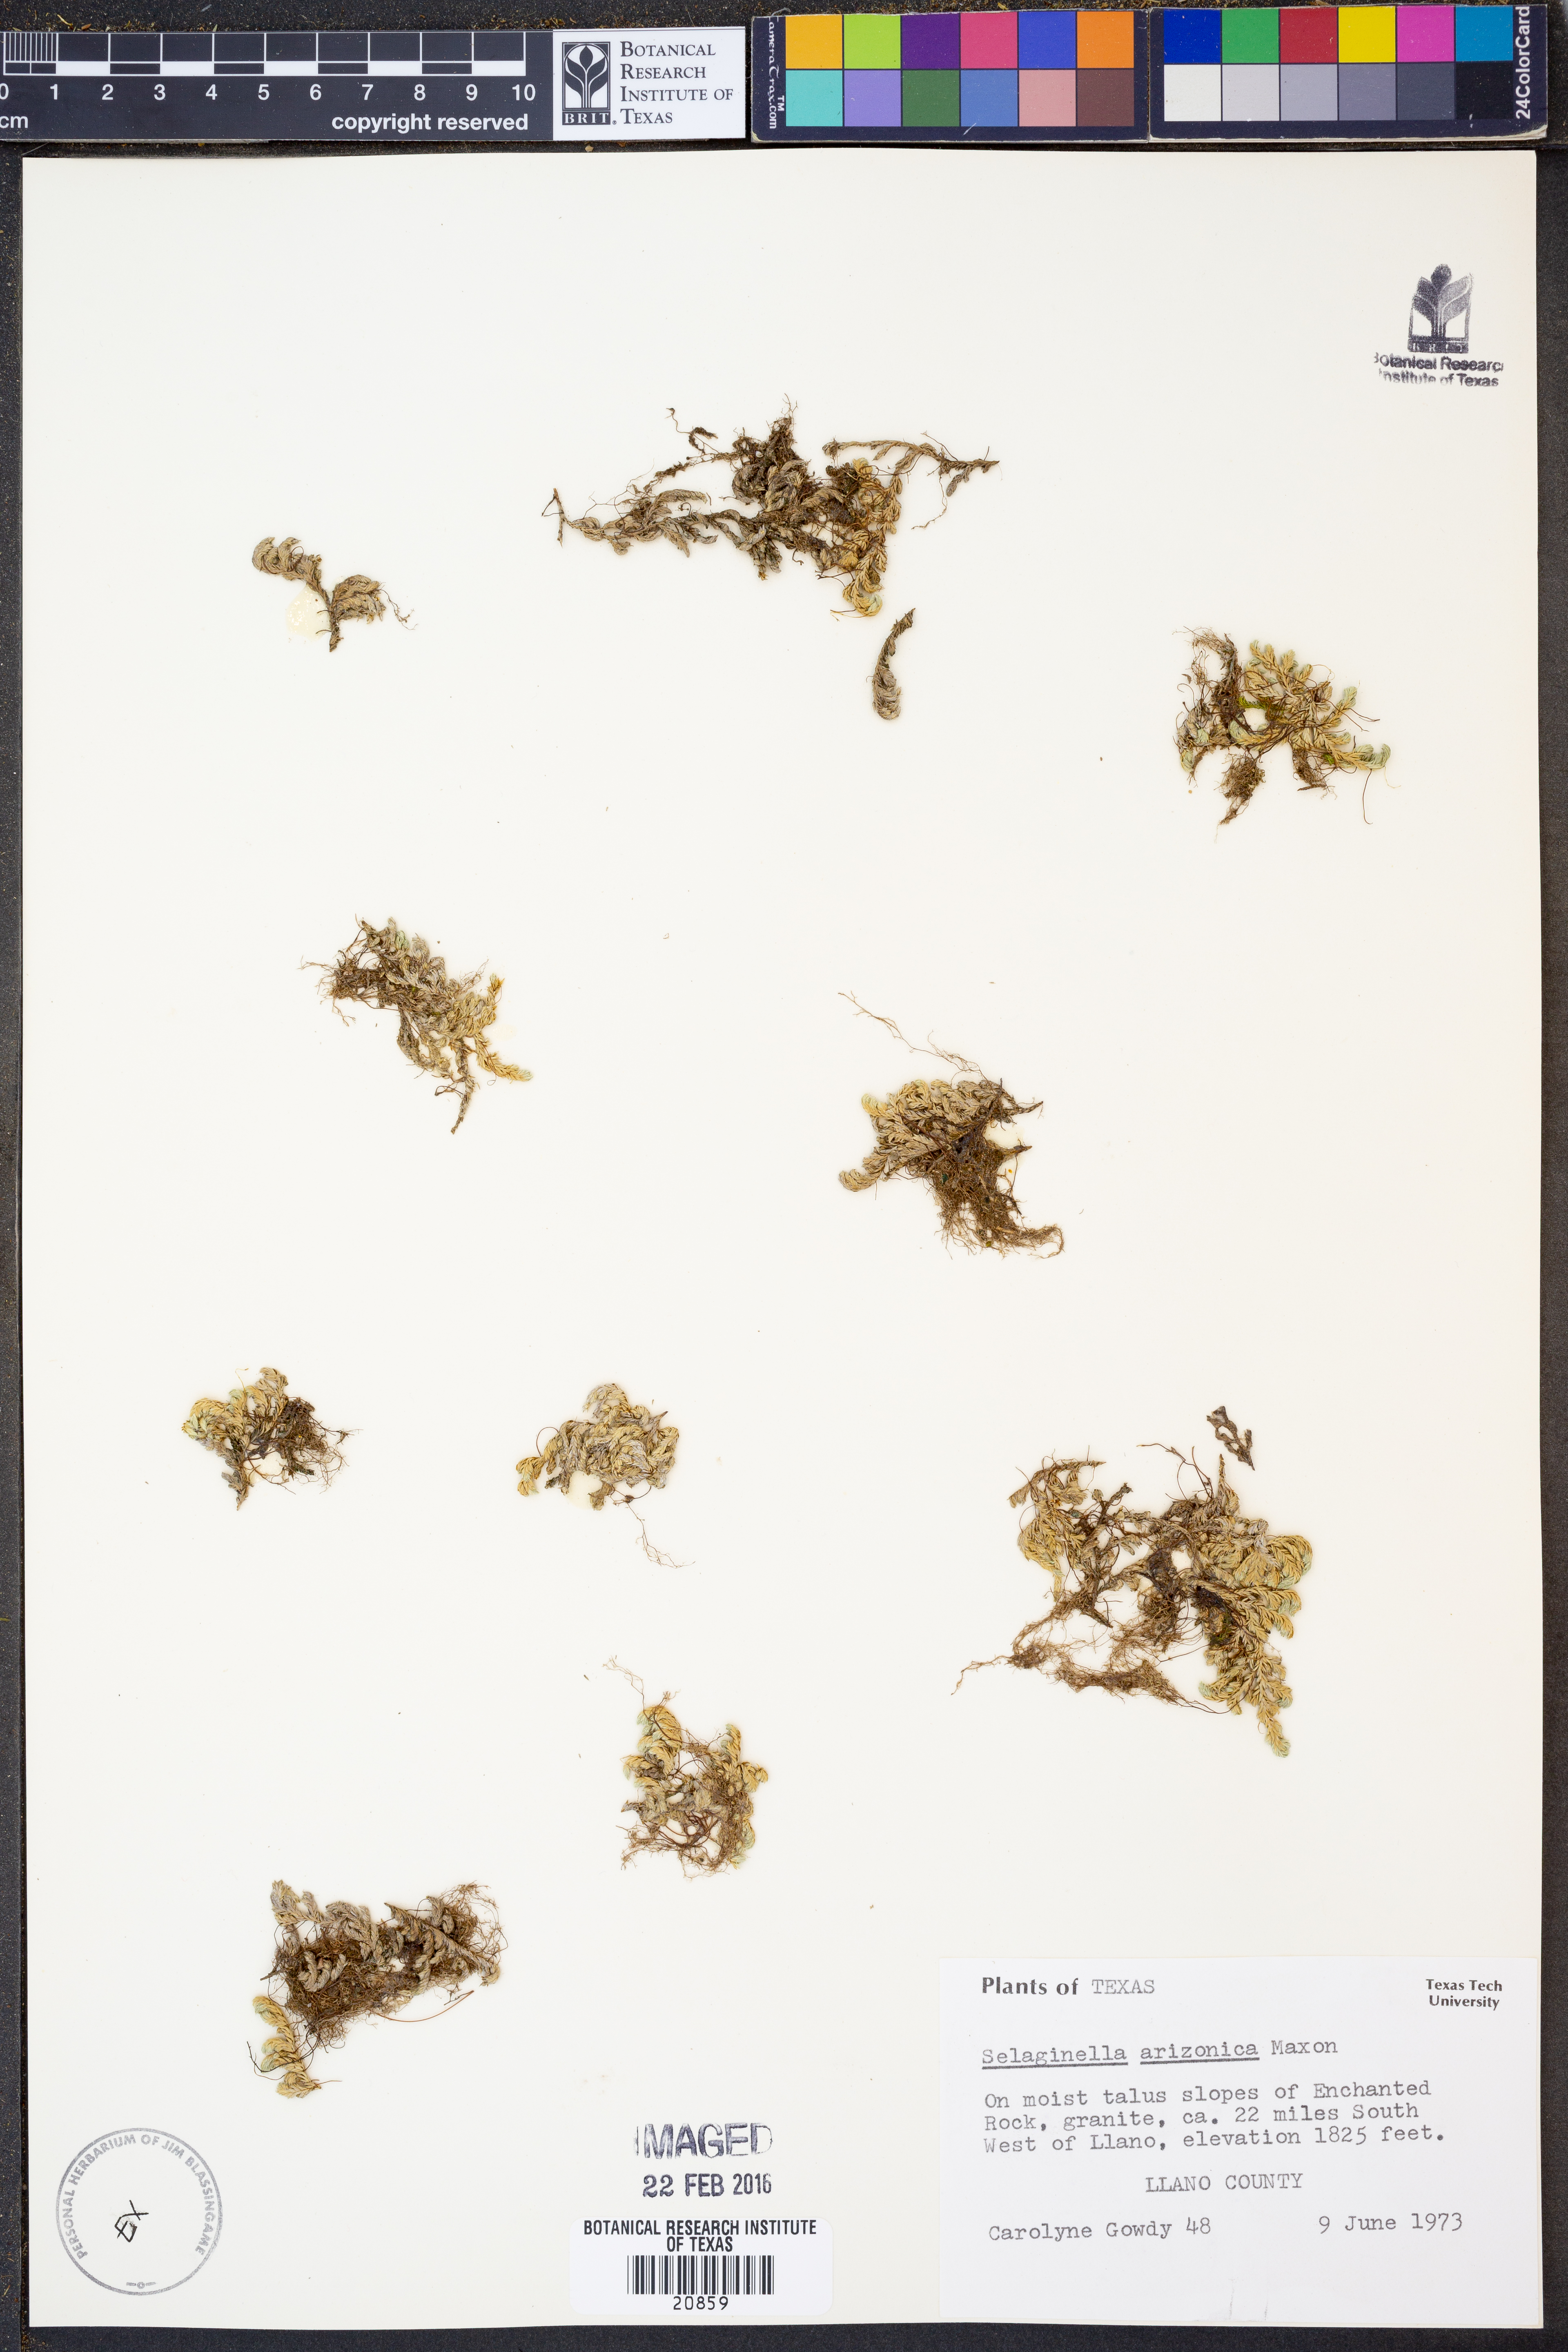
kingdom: Plantae
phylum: Tracheophyta
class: Lycopodiopsida
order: Selaginellales
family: Selaginellaceae
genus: Selaginella
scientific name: Selaginella arizonica
